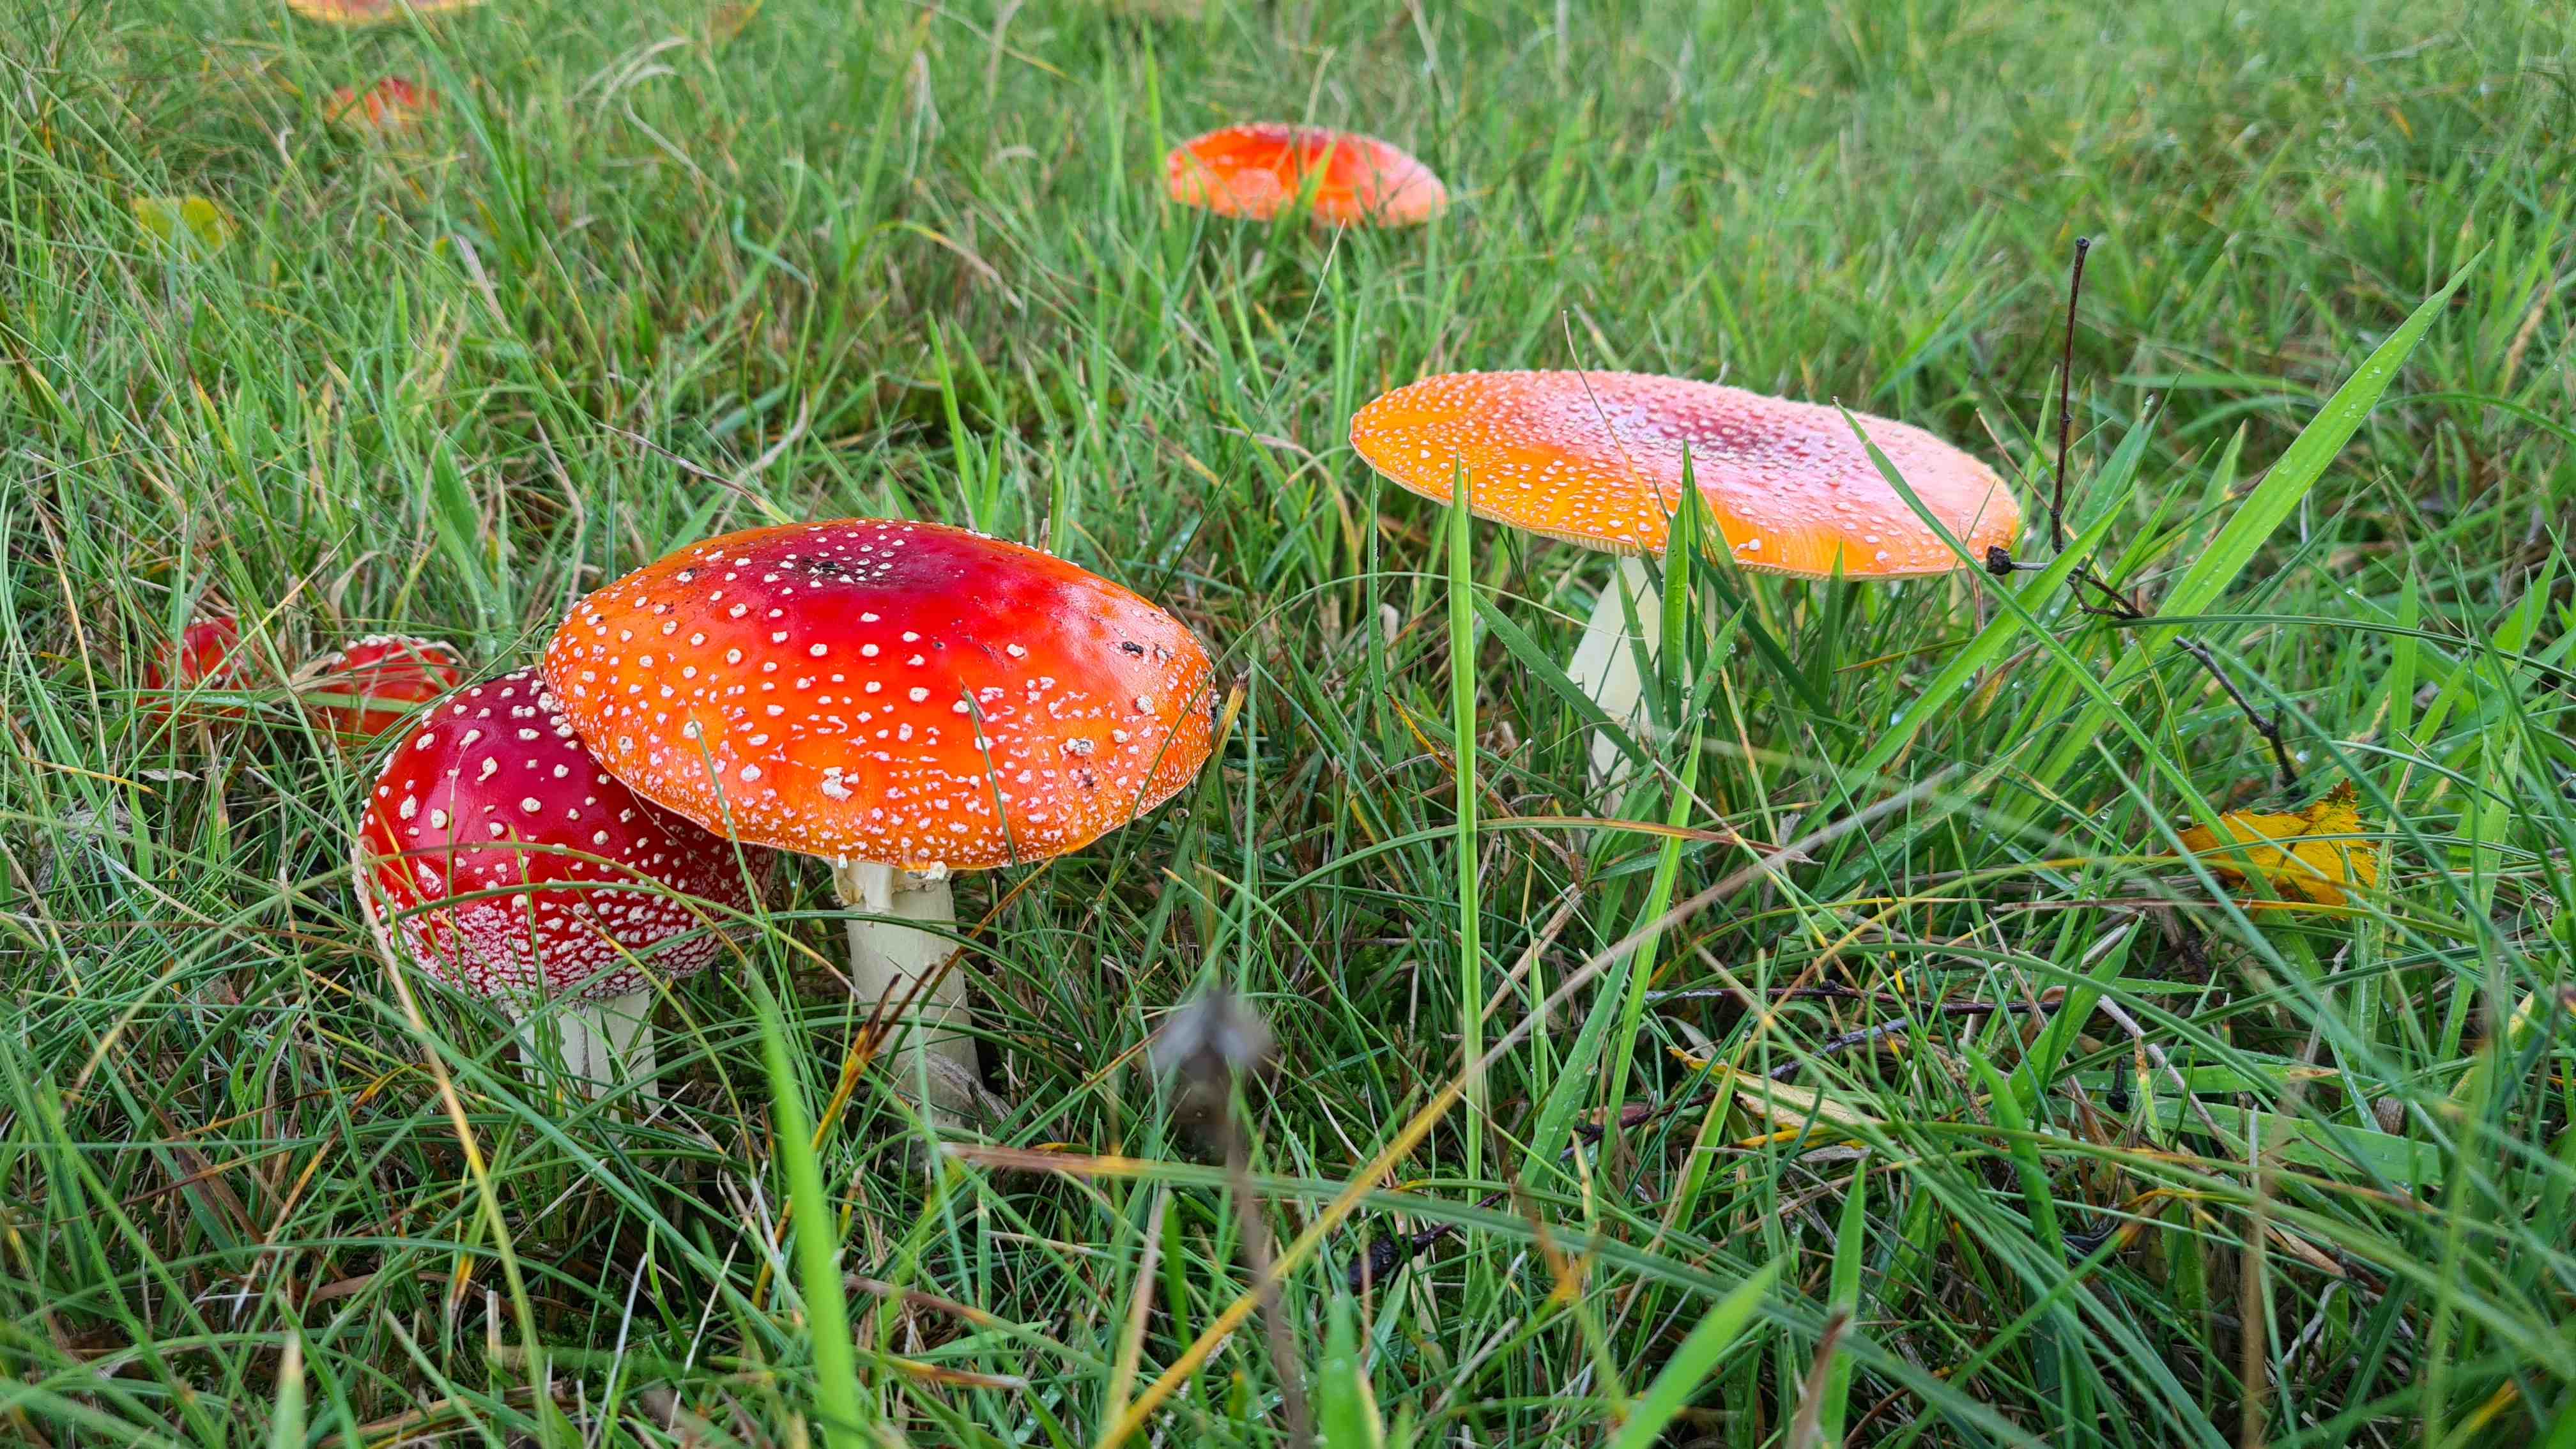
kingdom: Fungi
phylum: Basidiomycota
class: Agaricomycetes
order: Agaricales
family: Amanitaceae
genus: Amanita
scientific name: Amanita muscaria
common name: rød fluesvamp
